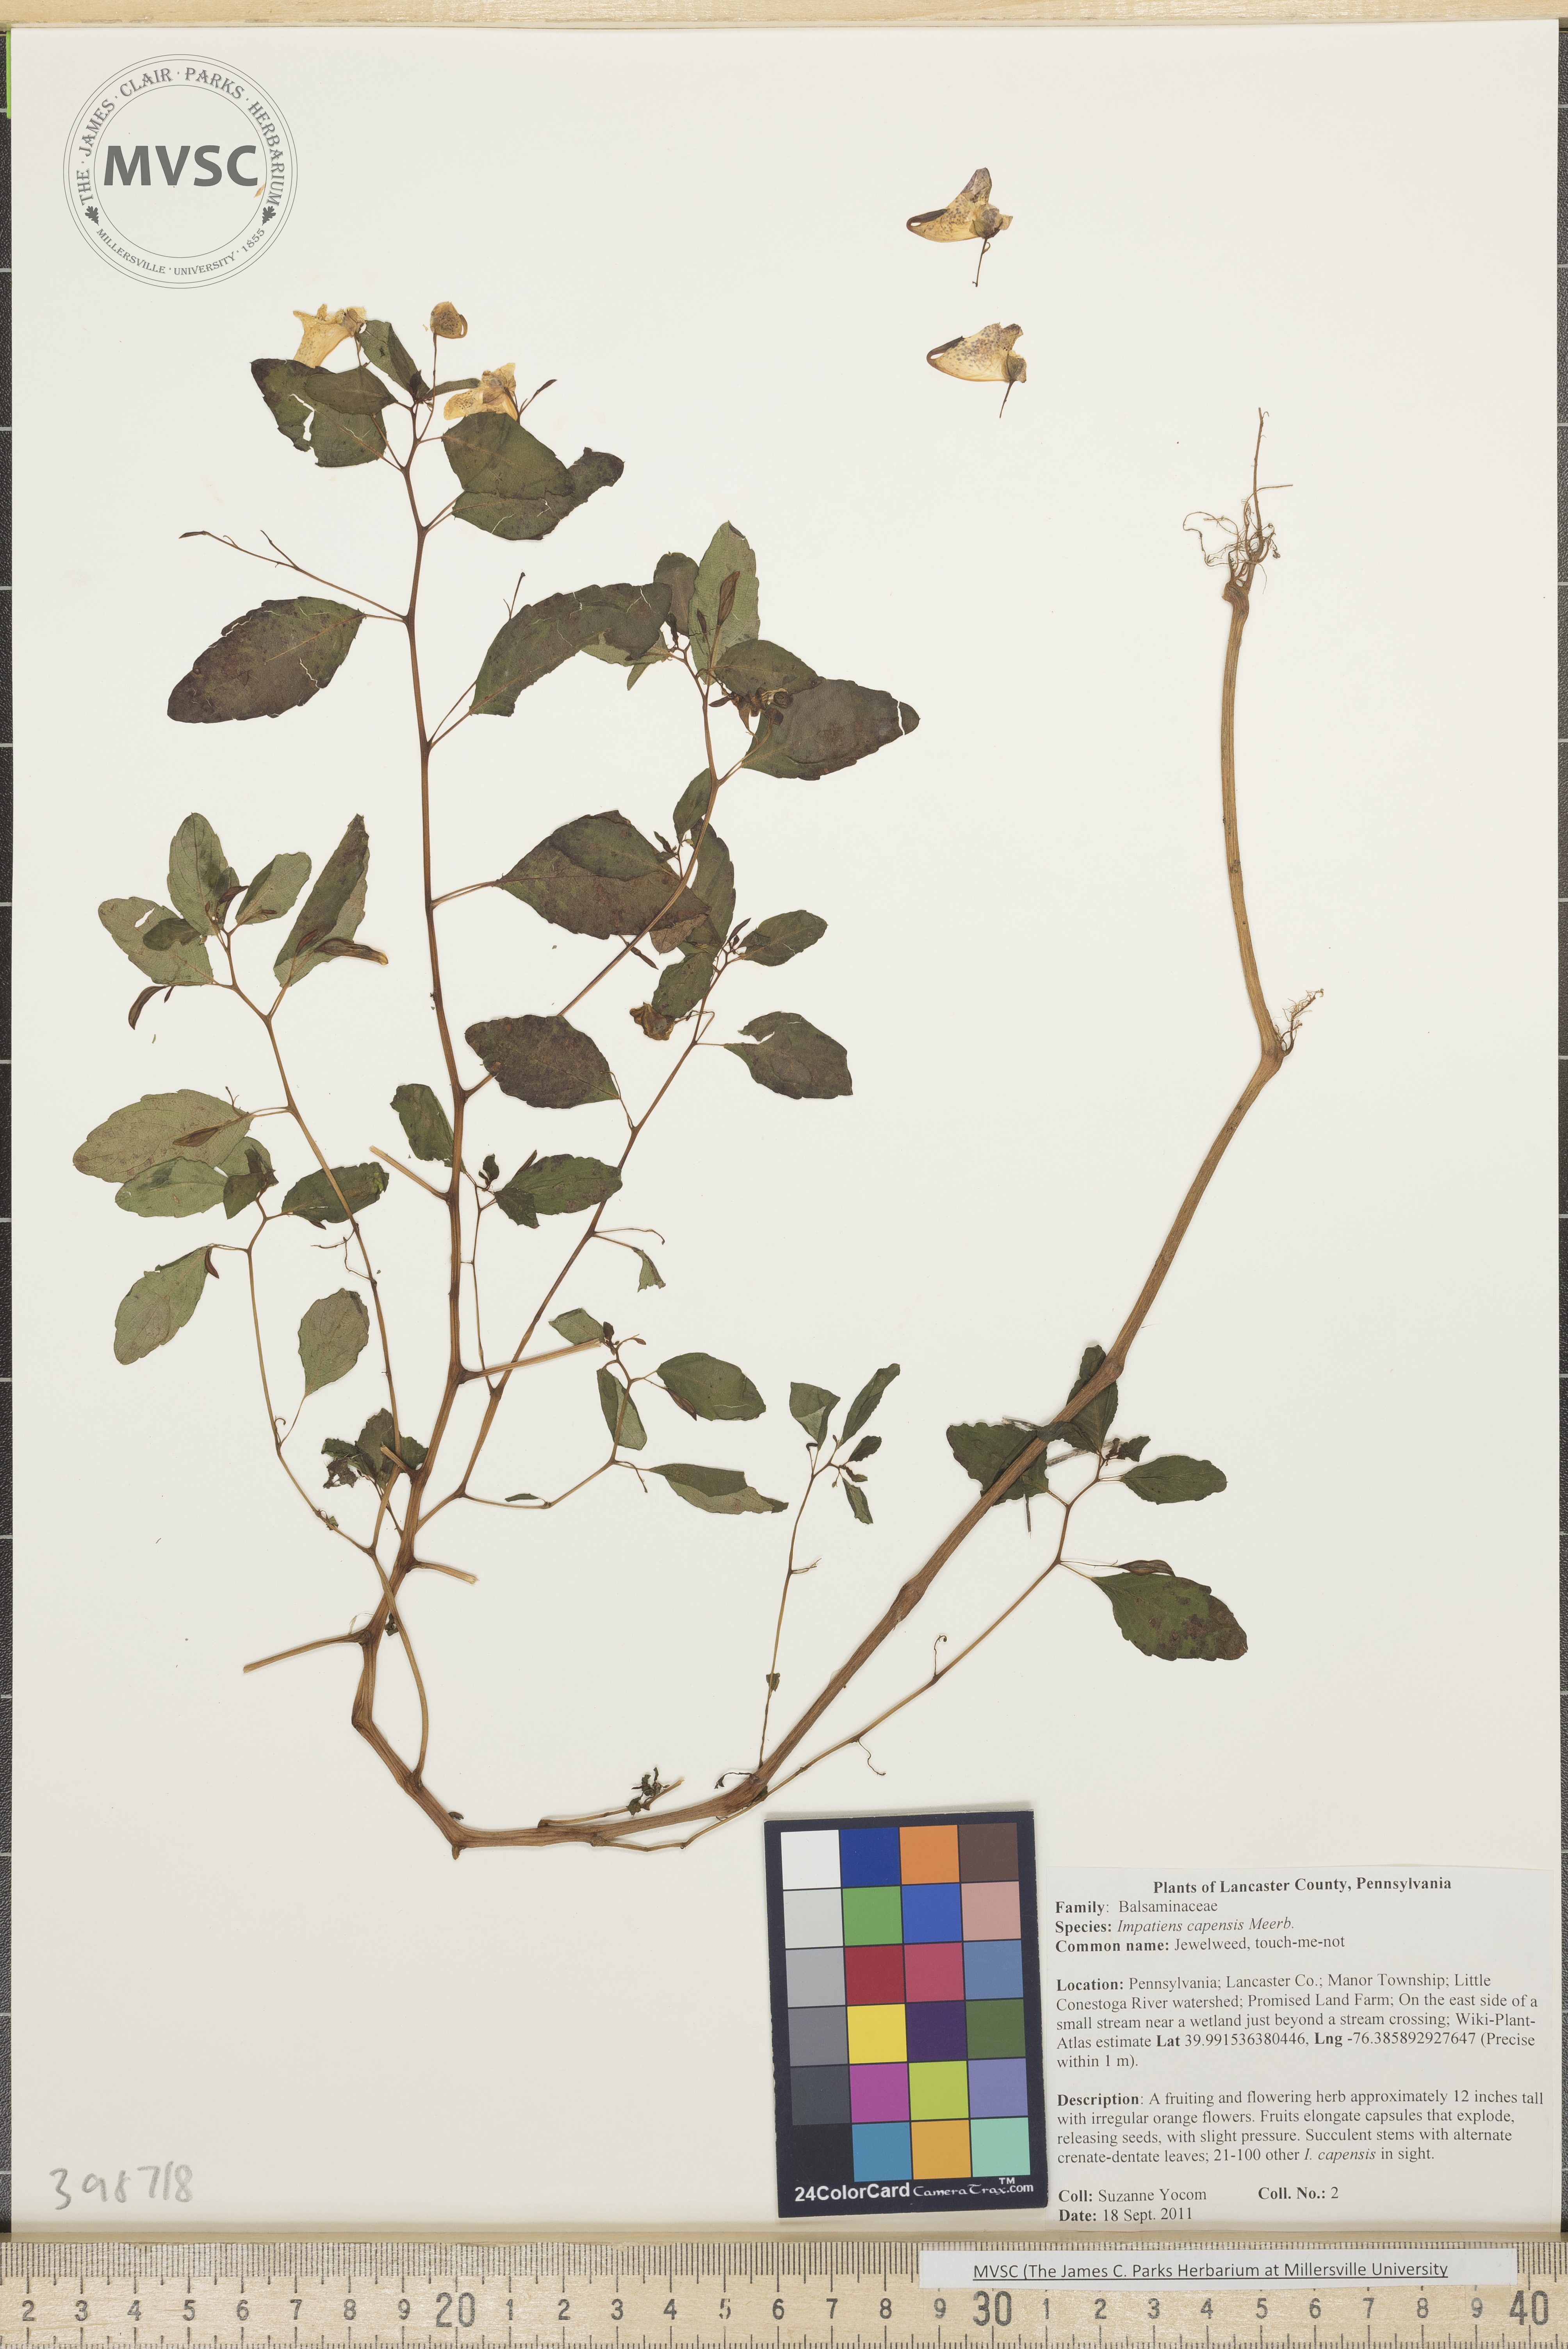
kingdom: Plantae
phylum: Tracheophyta
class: Magnoliopsida
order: Ericales
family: Balsaminaceae
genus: Impatiens
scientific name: Impatiens capensis
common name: Jewelweed
